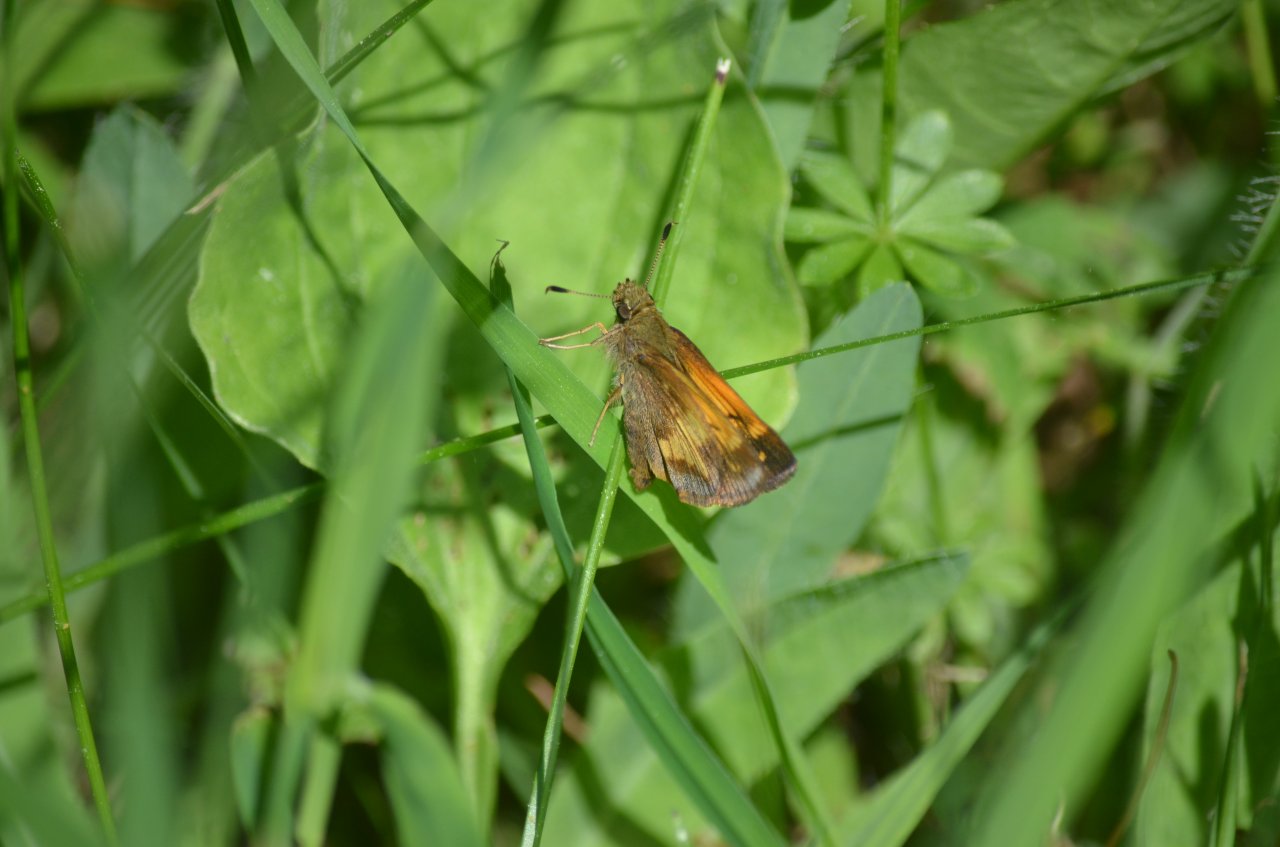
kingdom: Animalia
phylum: Arthropoda
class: Insecta
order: Lepidoptera
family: Hesperiidae
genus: Lon
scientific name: Lon hobomok
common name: Hobomok Skipper
